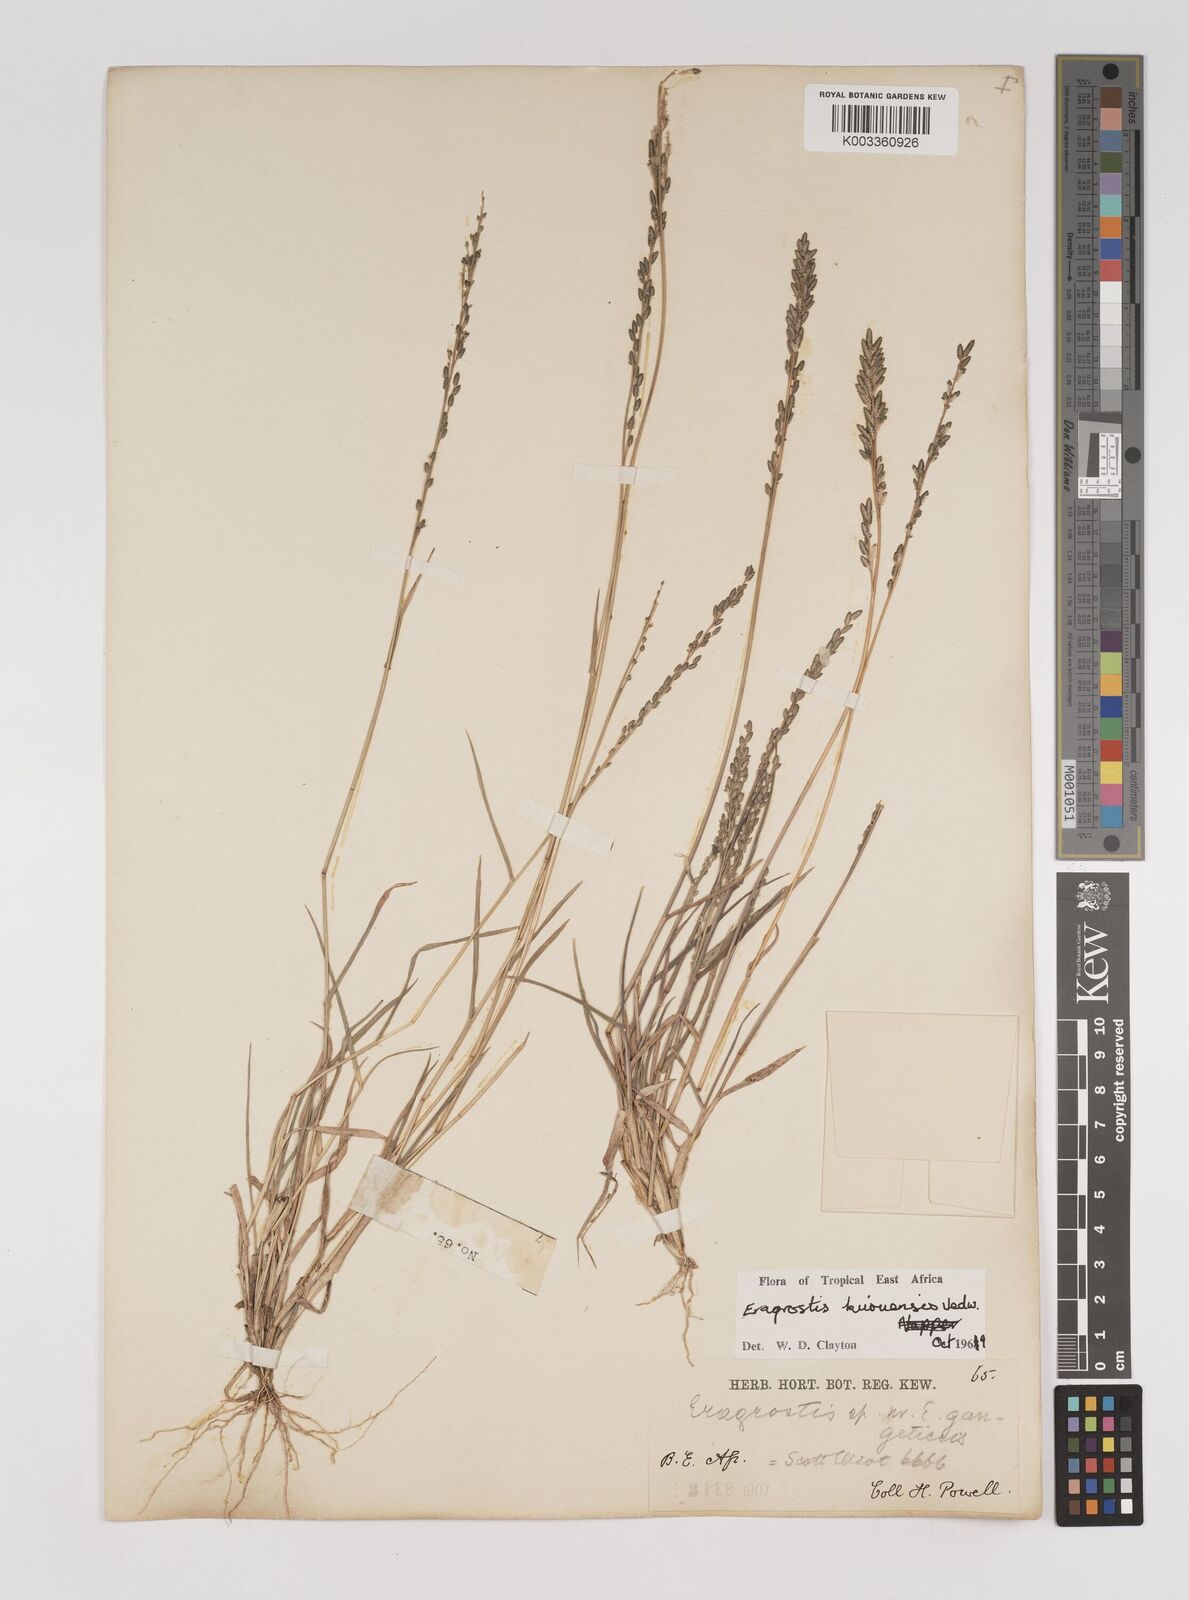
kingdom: Plantae
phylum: Tracheophyta
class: Liliopsida
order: Poales
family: Poaceae
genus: Eragrostis
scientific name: Eragrostis schweinfurthii
